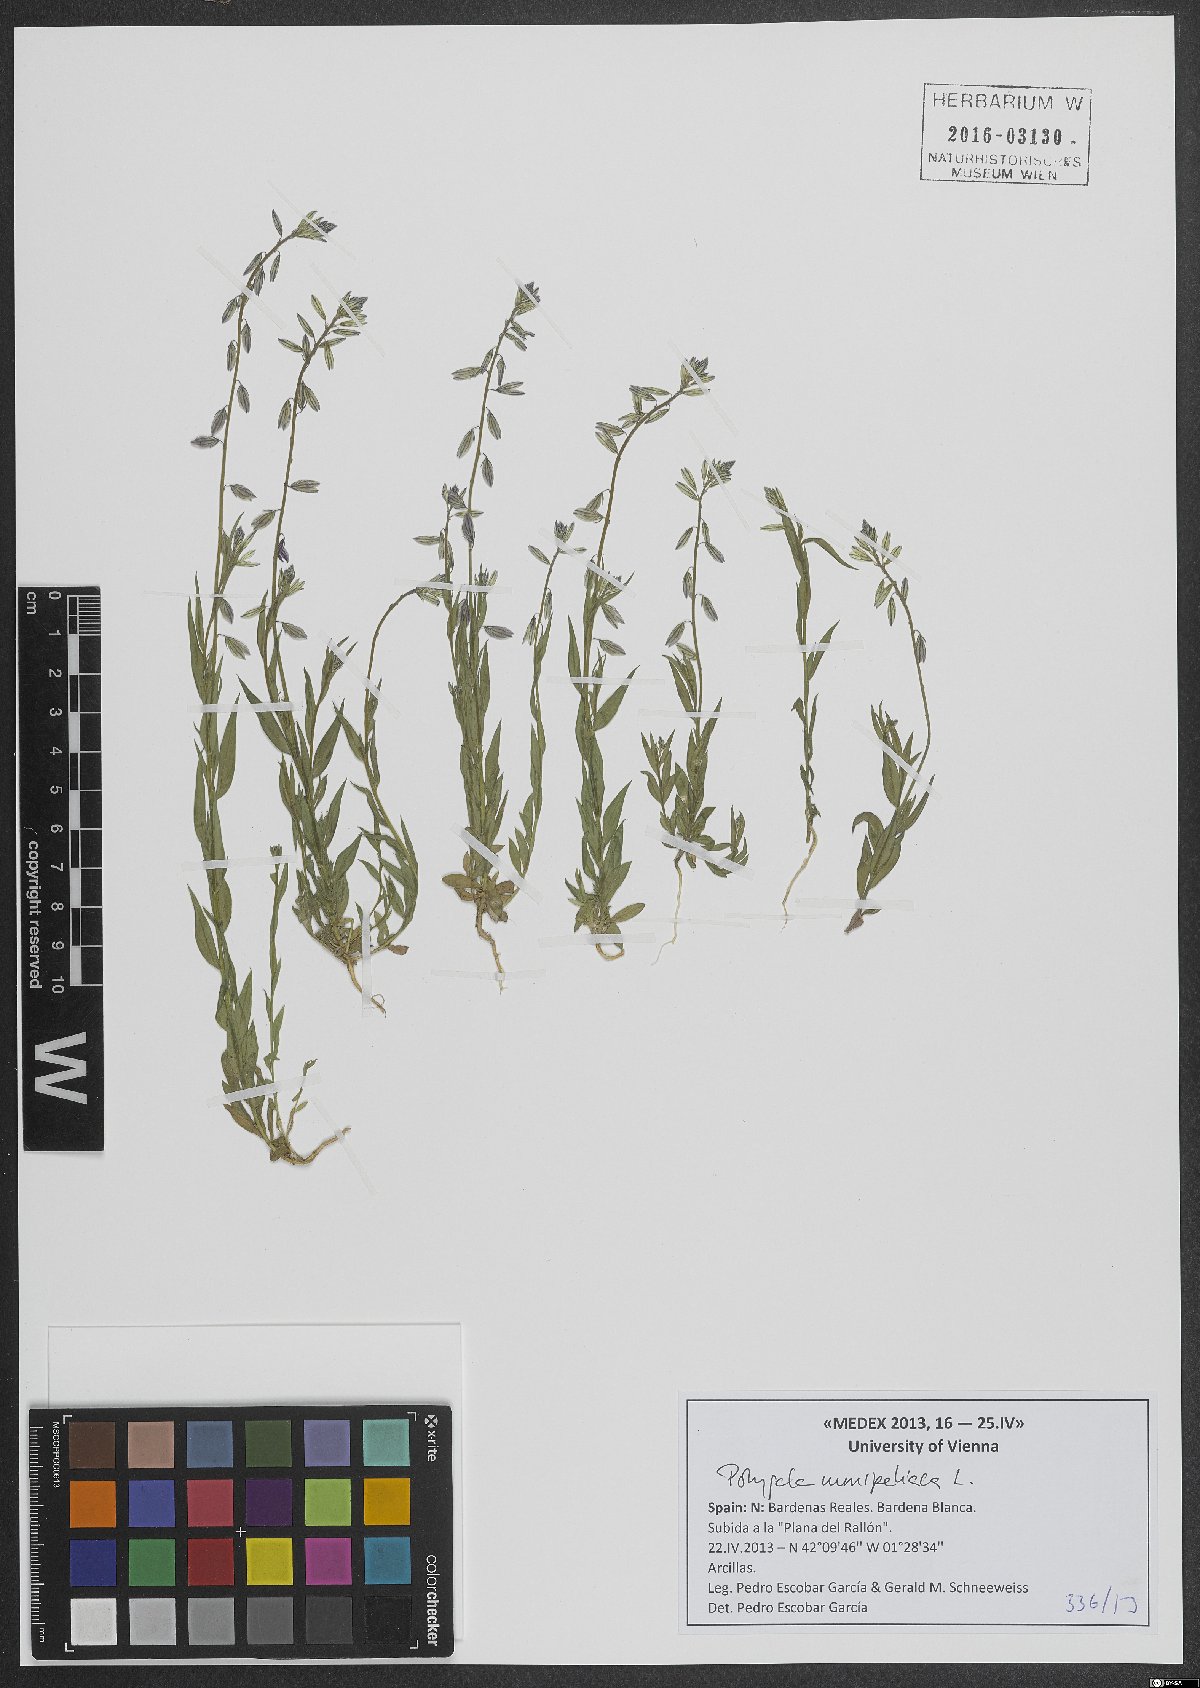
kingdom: Plantae
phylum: Tracheophyta
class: Magnoliopsida
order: Fabales
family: Polygalaceae
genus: Polygala
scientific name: Polygala monspeliaca
